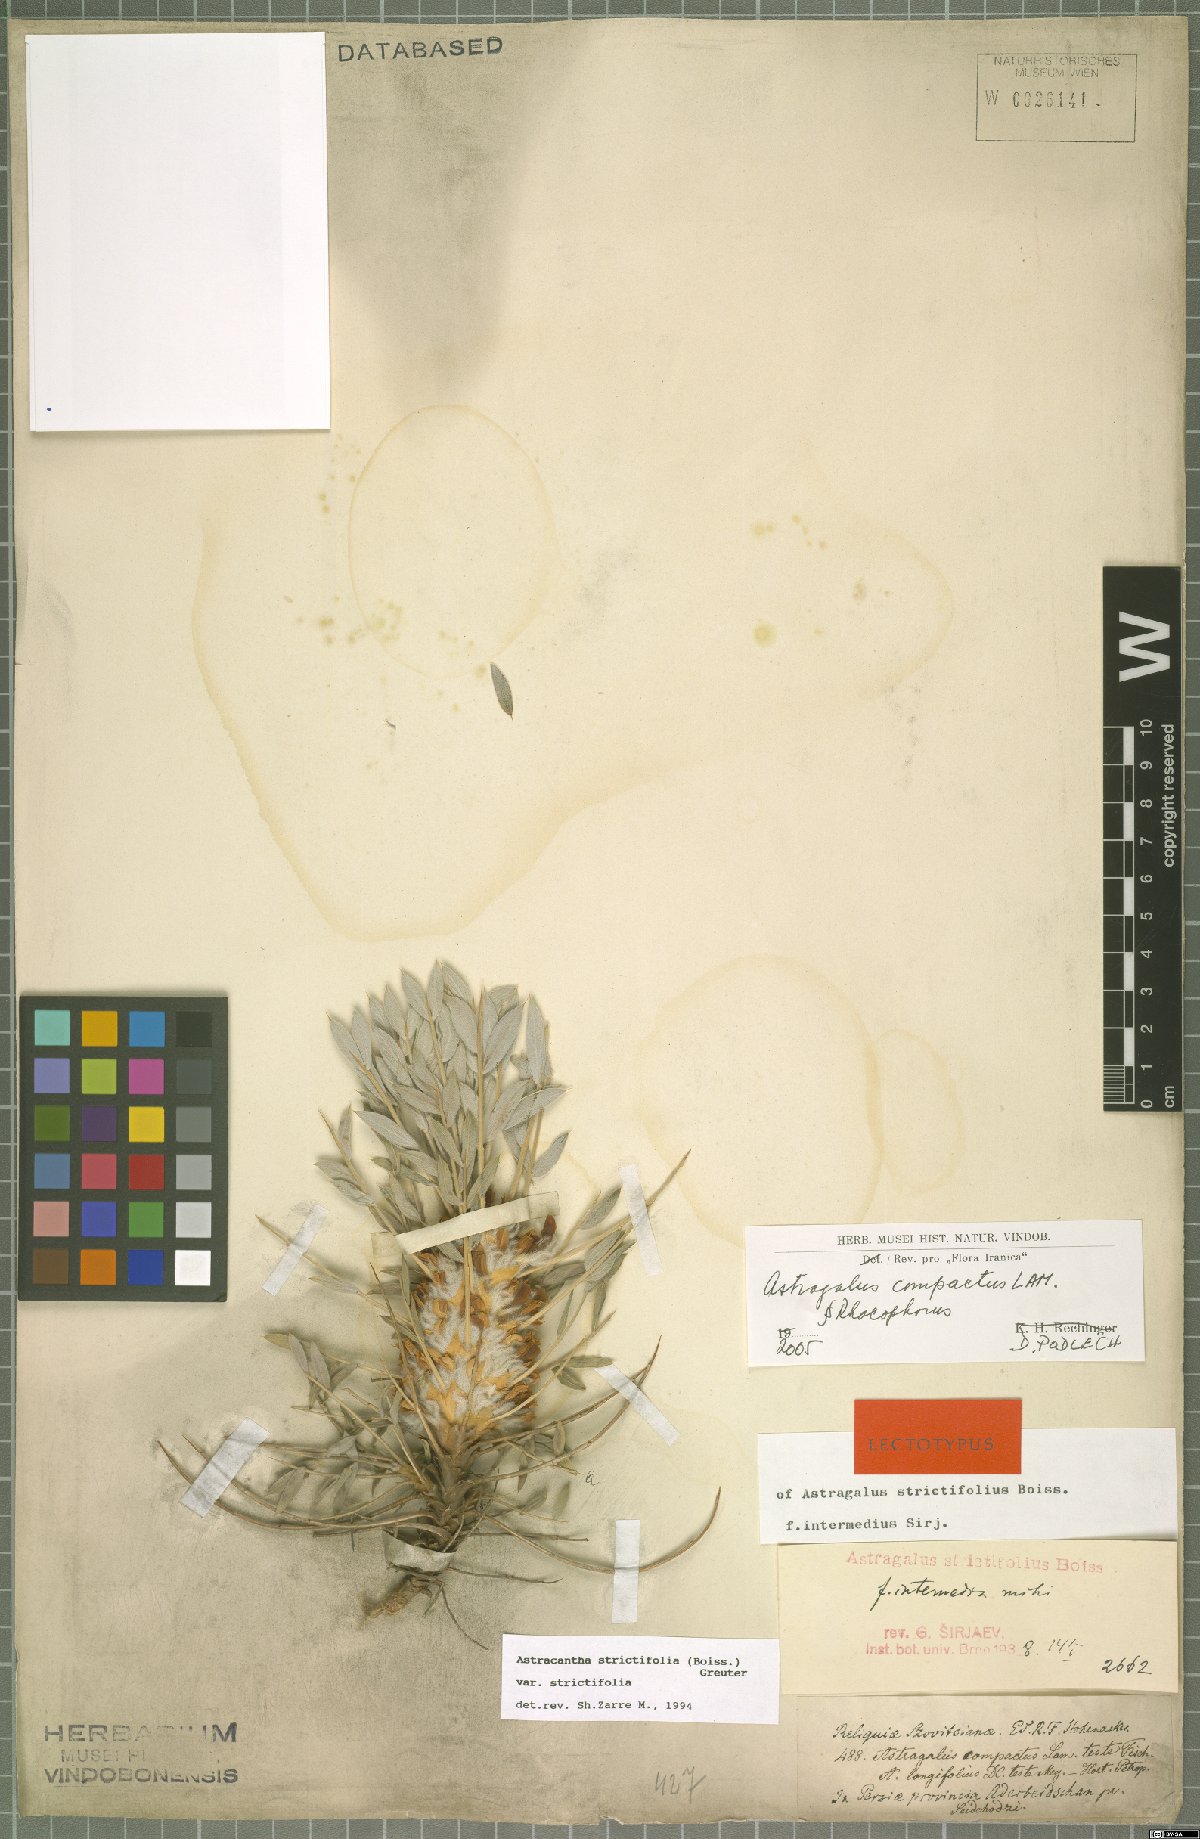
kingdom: Plantae
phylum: Tracheophyta
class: Magnoliopsida
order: Fabales
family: Fabaceae
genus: Astragalus
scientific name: Astragalus compactus
